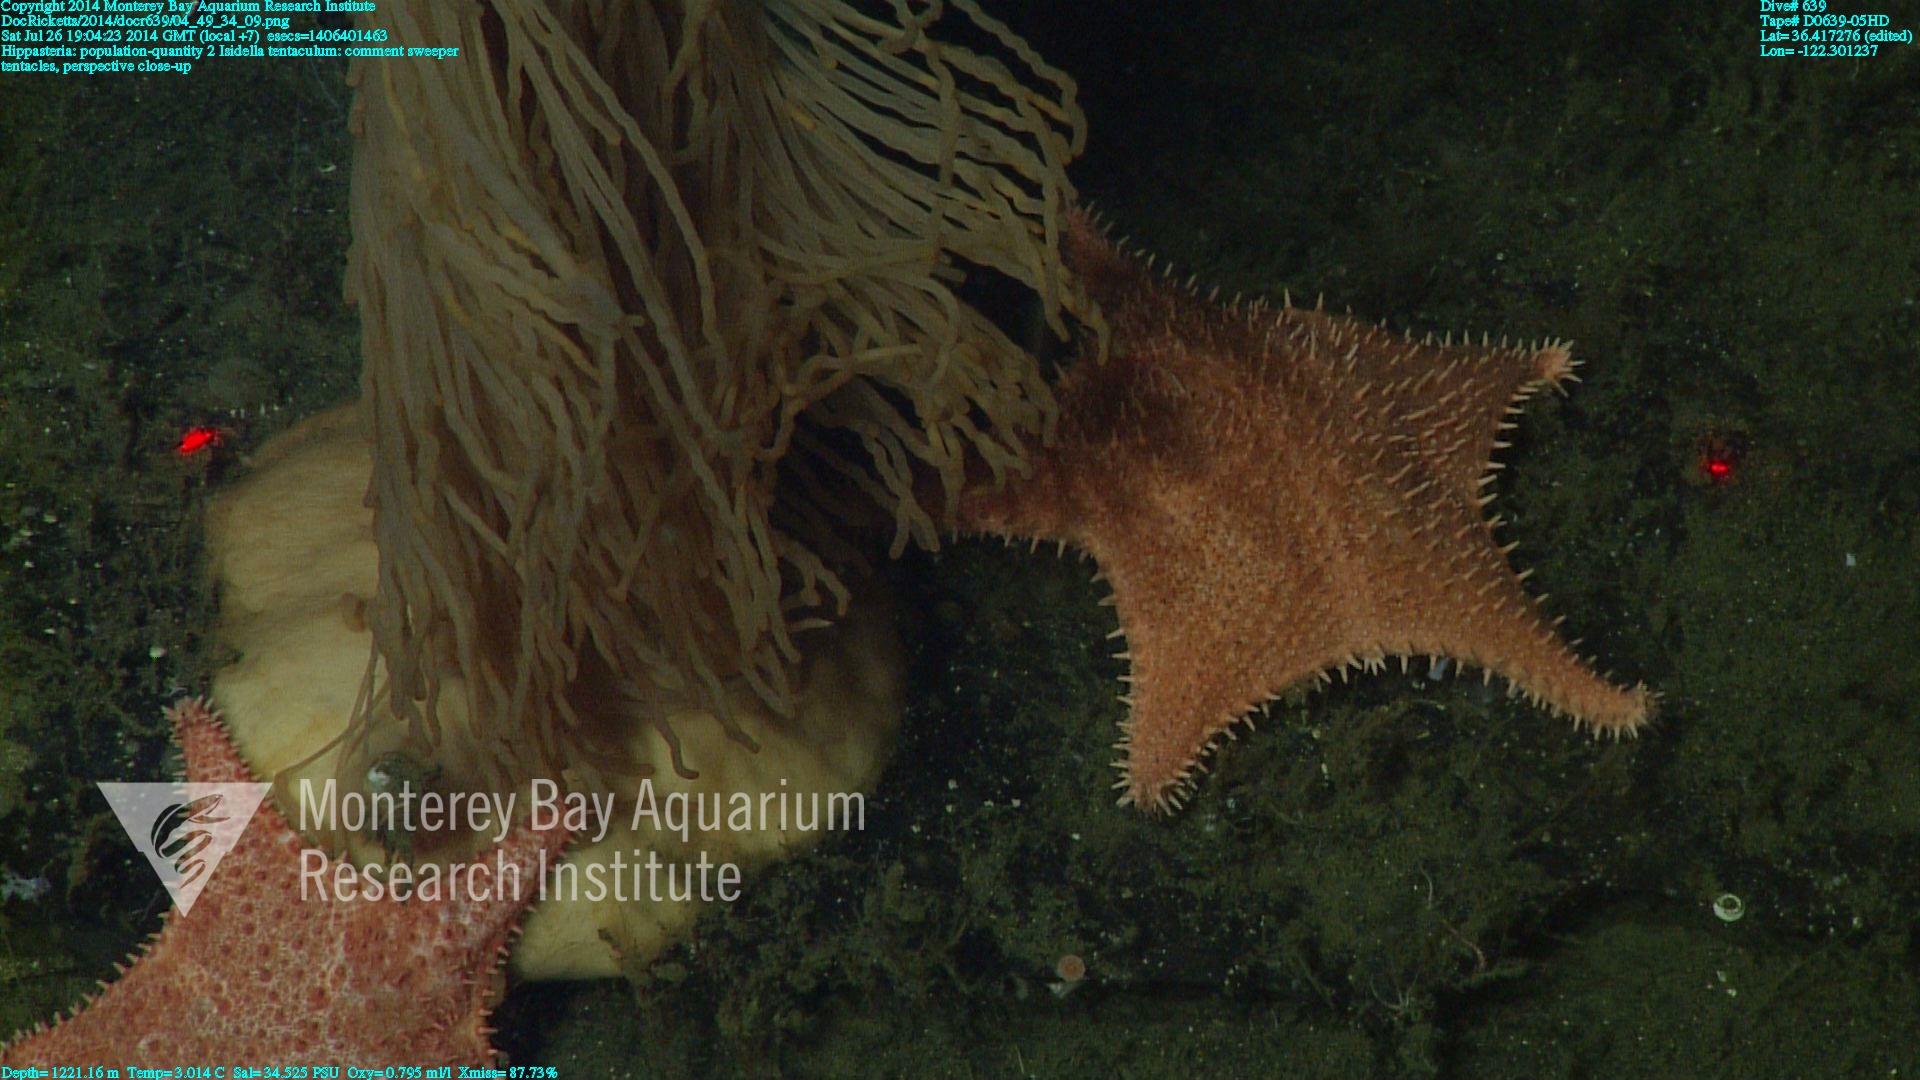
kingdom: Animalia
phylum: Cnidaria
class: Anthozoa
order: Scleralcyonacea
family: Keratoisididae
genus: Isidella
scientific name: Isidella tentaculum
